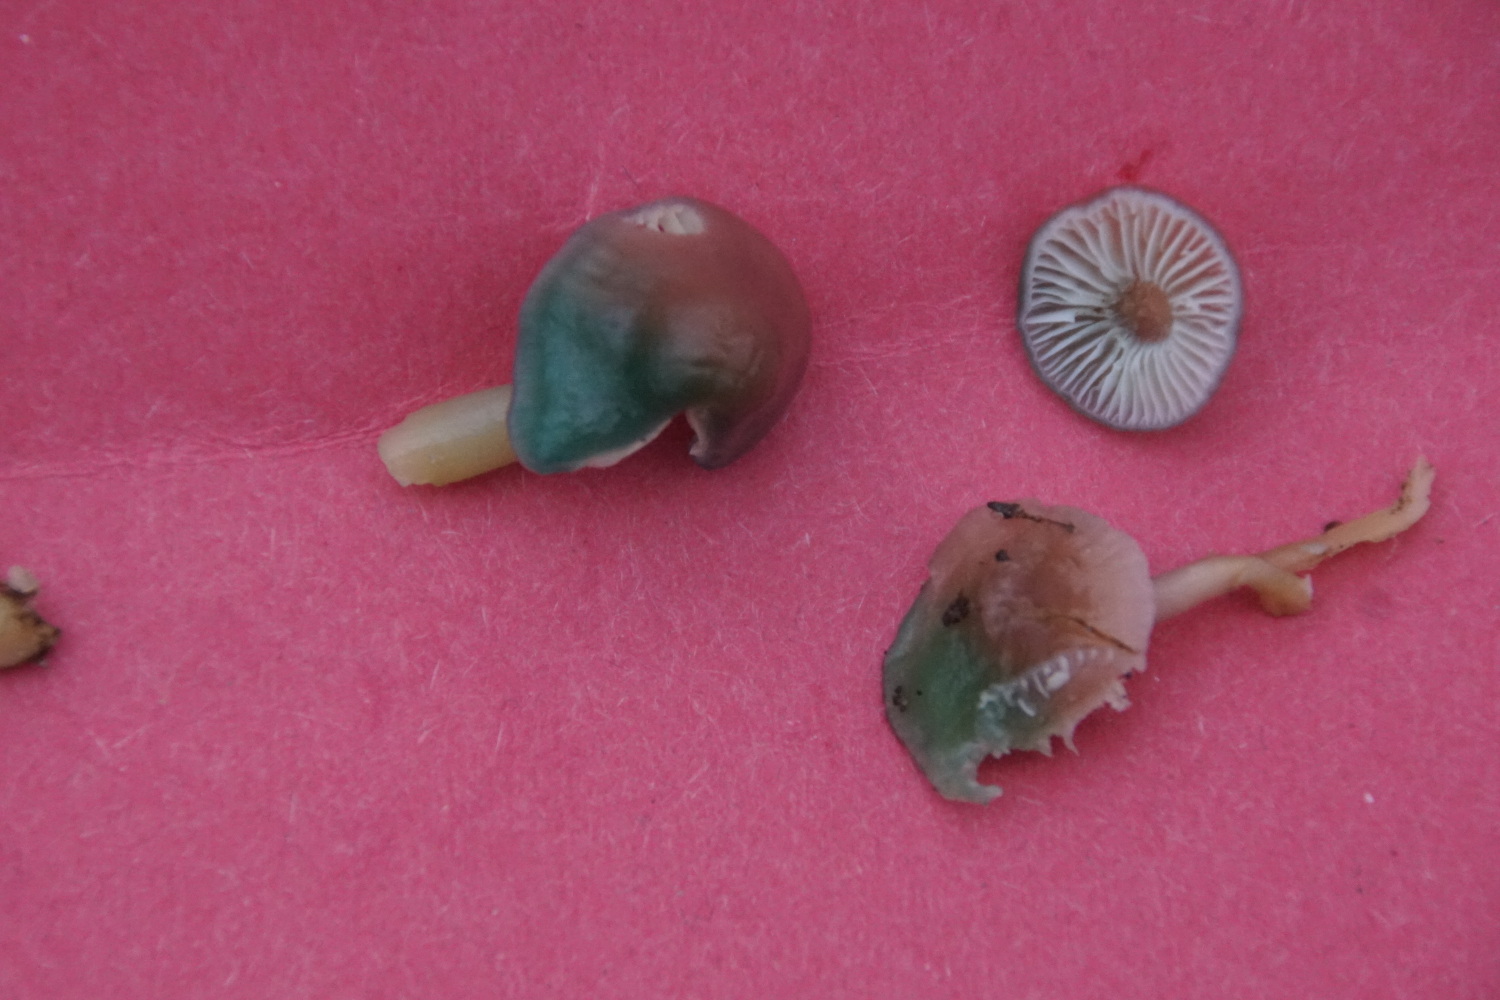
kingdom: Fungi
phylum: Basidiomycota
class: Agaricomycetes
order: Agaricales
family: Hygrophoraceae
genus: Gliophorus
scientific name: Gliophorus psittacinus
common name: papegøje-vokshat
